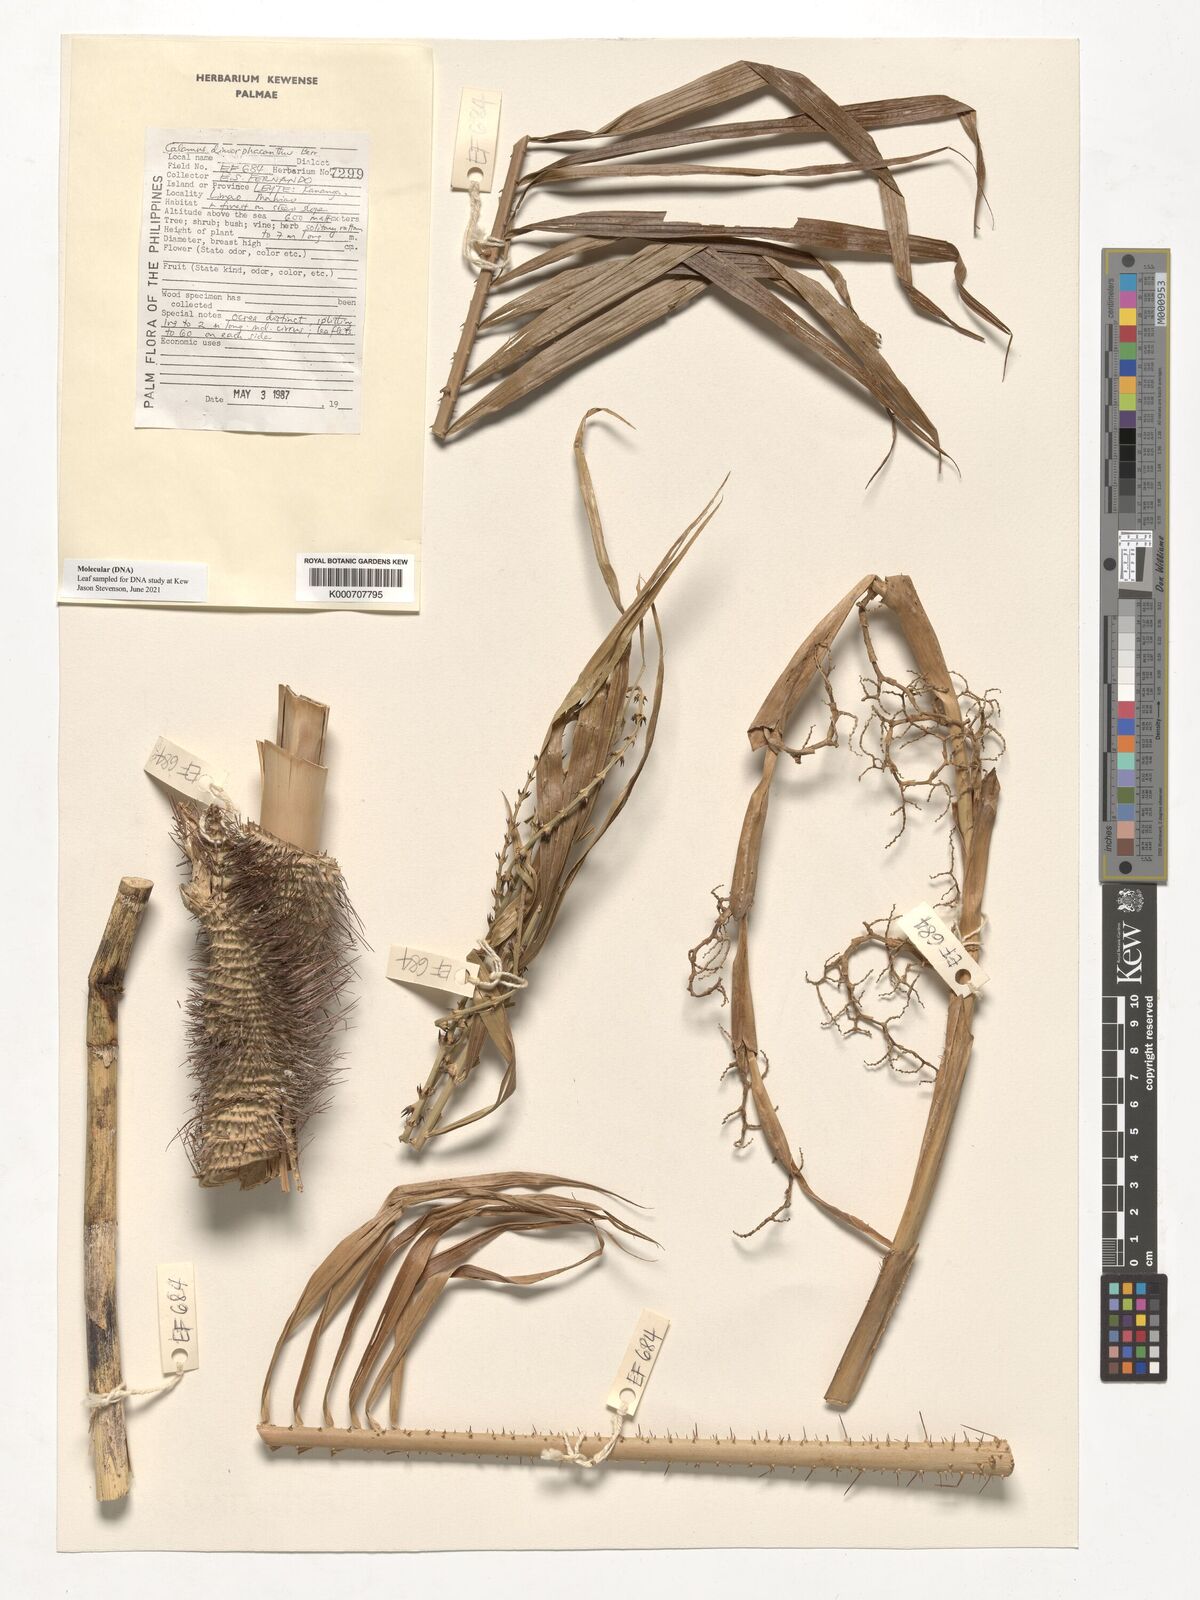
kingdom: Plantae
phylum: Tracheophyta
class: Liliopsida
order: Arecales
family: Arecaceae
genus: Calamus
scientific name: Calamus siphonospathus
